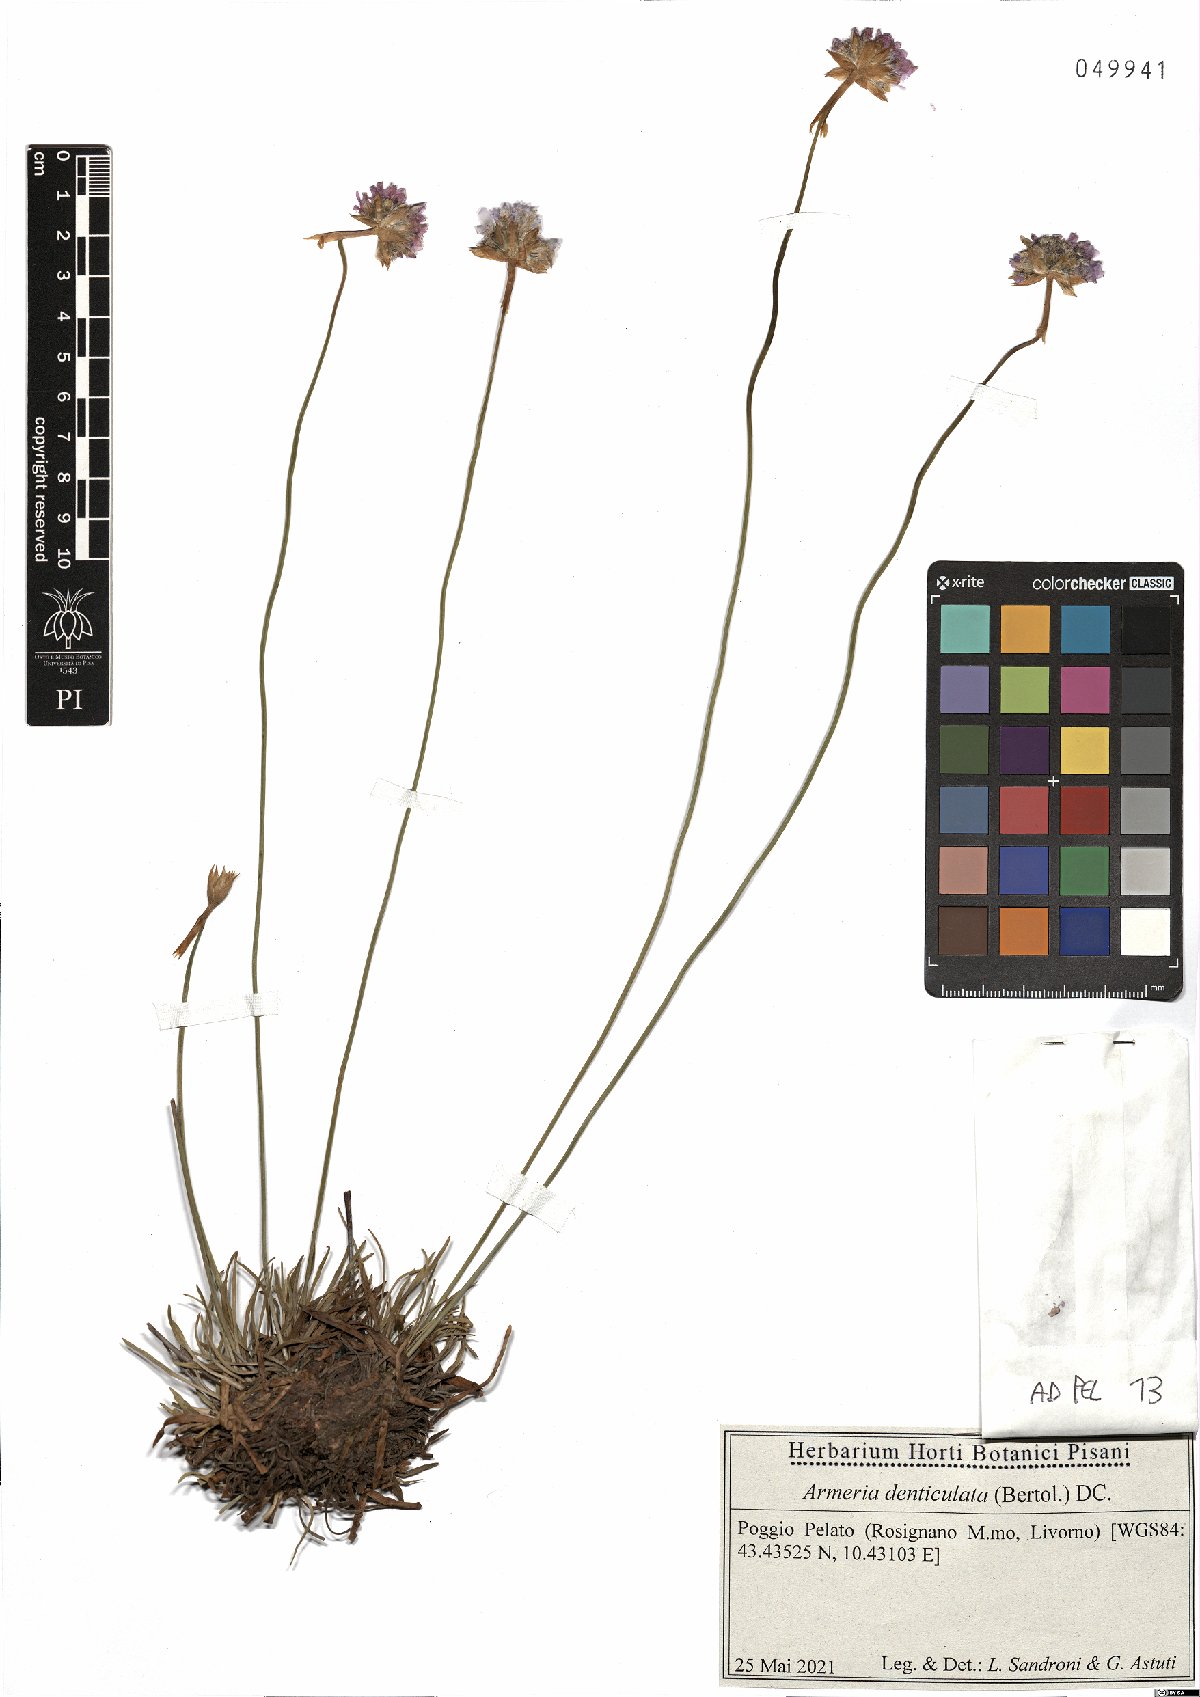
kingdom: Plantae
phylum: Tracheophyta
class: Magnoliopsida
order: Caryophyllales
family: Plumbaginaceae
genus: Armeria
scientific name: Armeria denticulata
